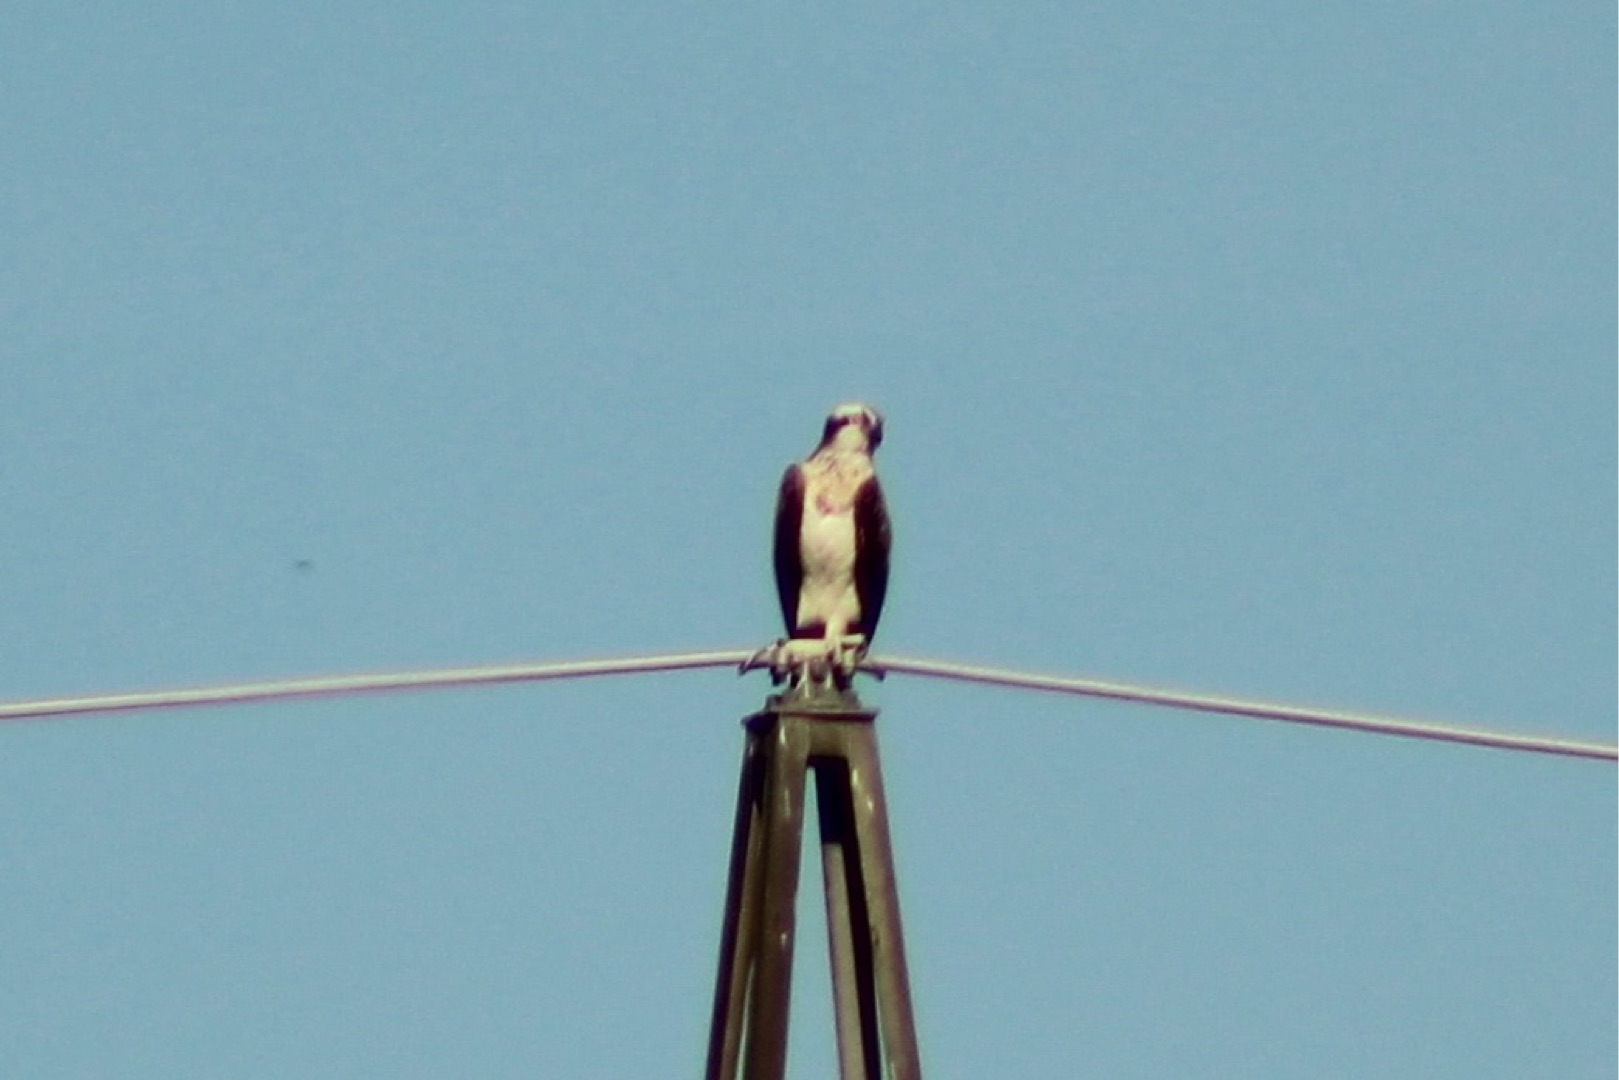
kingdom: Animalia
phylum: Chordata
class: Aves
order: Accipitriformes
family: Pandionidae
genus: Pandion
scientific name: Pandion haliaetus
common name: Fiskeørn
